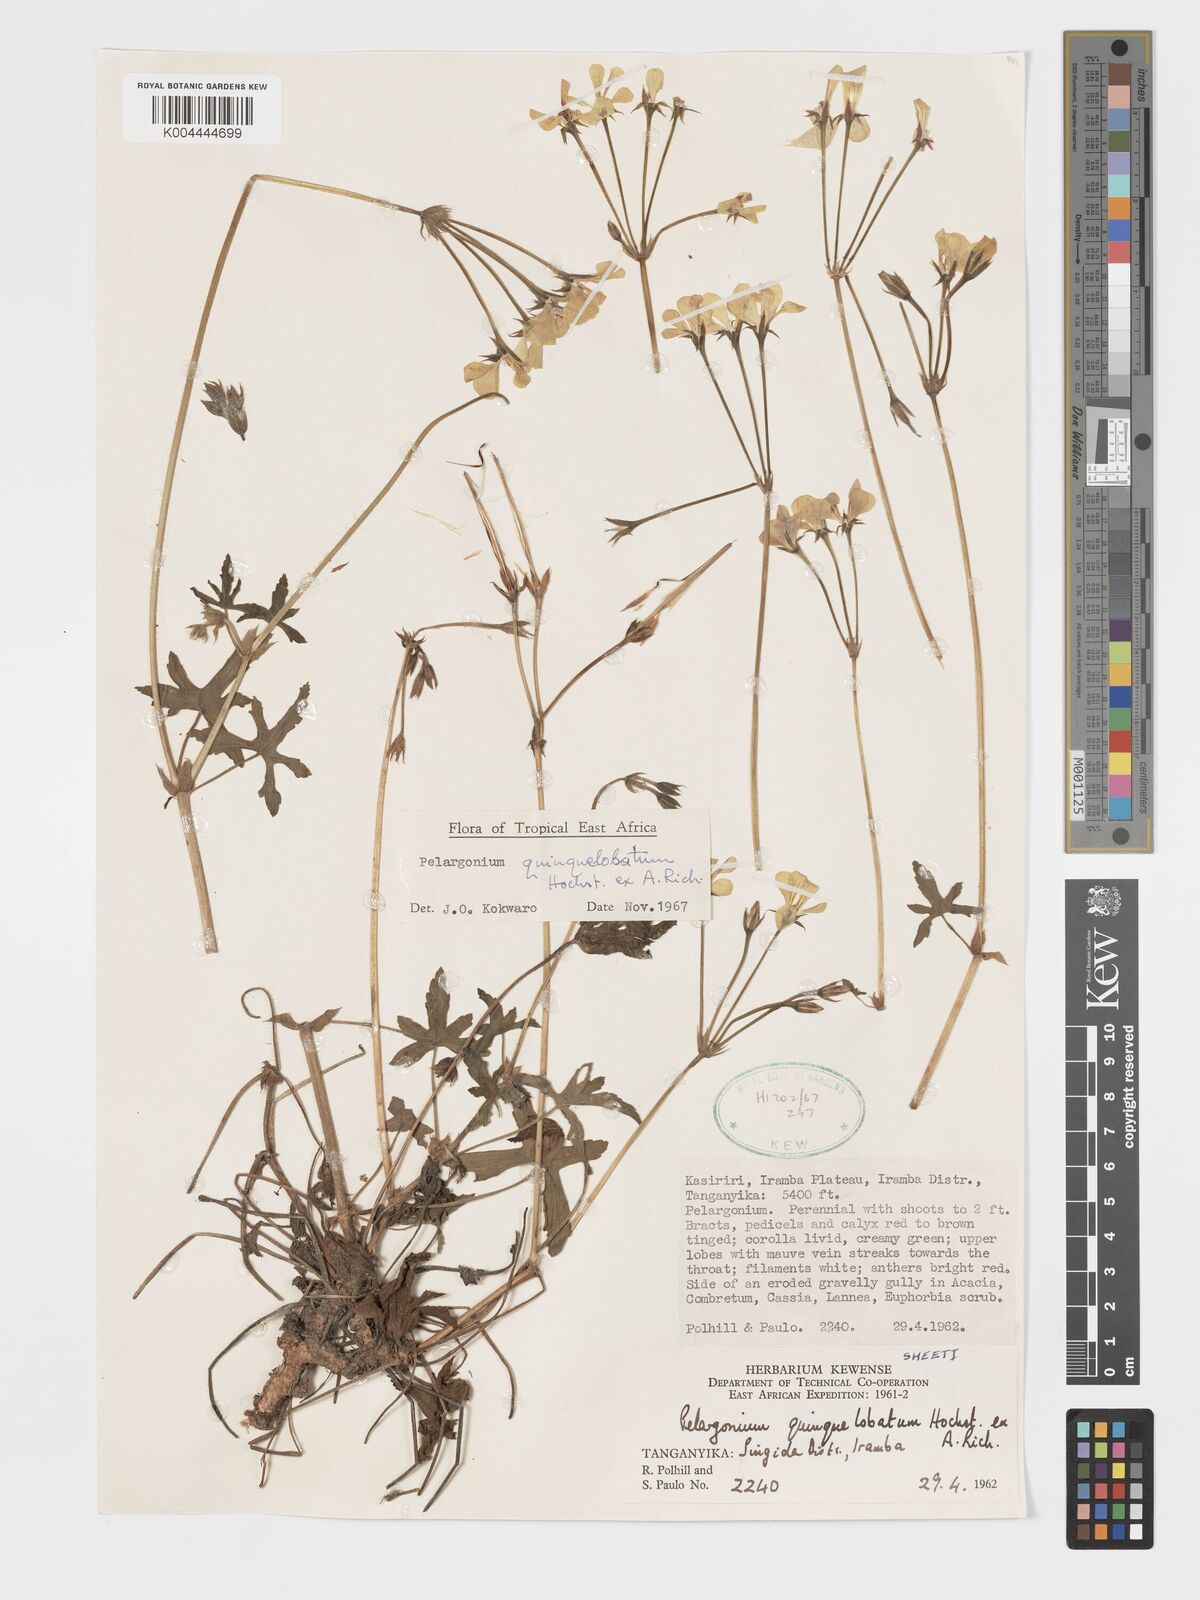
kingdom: Plantae
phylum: Tracheophyta
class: Magnoliopsida
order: Geraniales
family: Geraniaceae
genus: Pelargonium
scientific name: Pelargonium quinquelobatum
